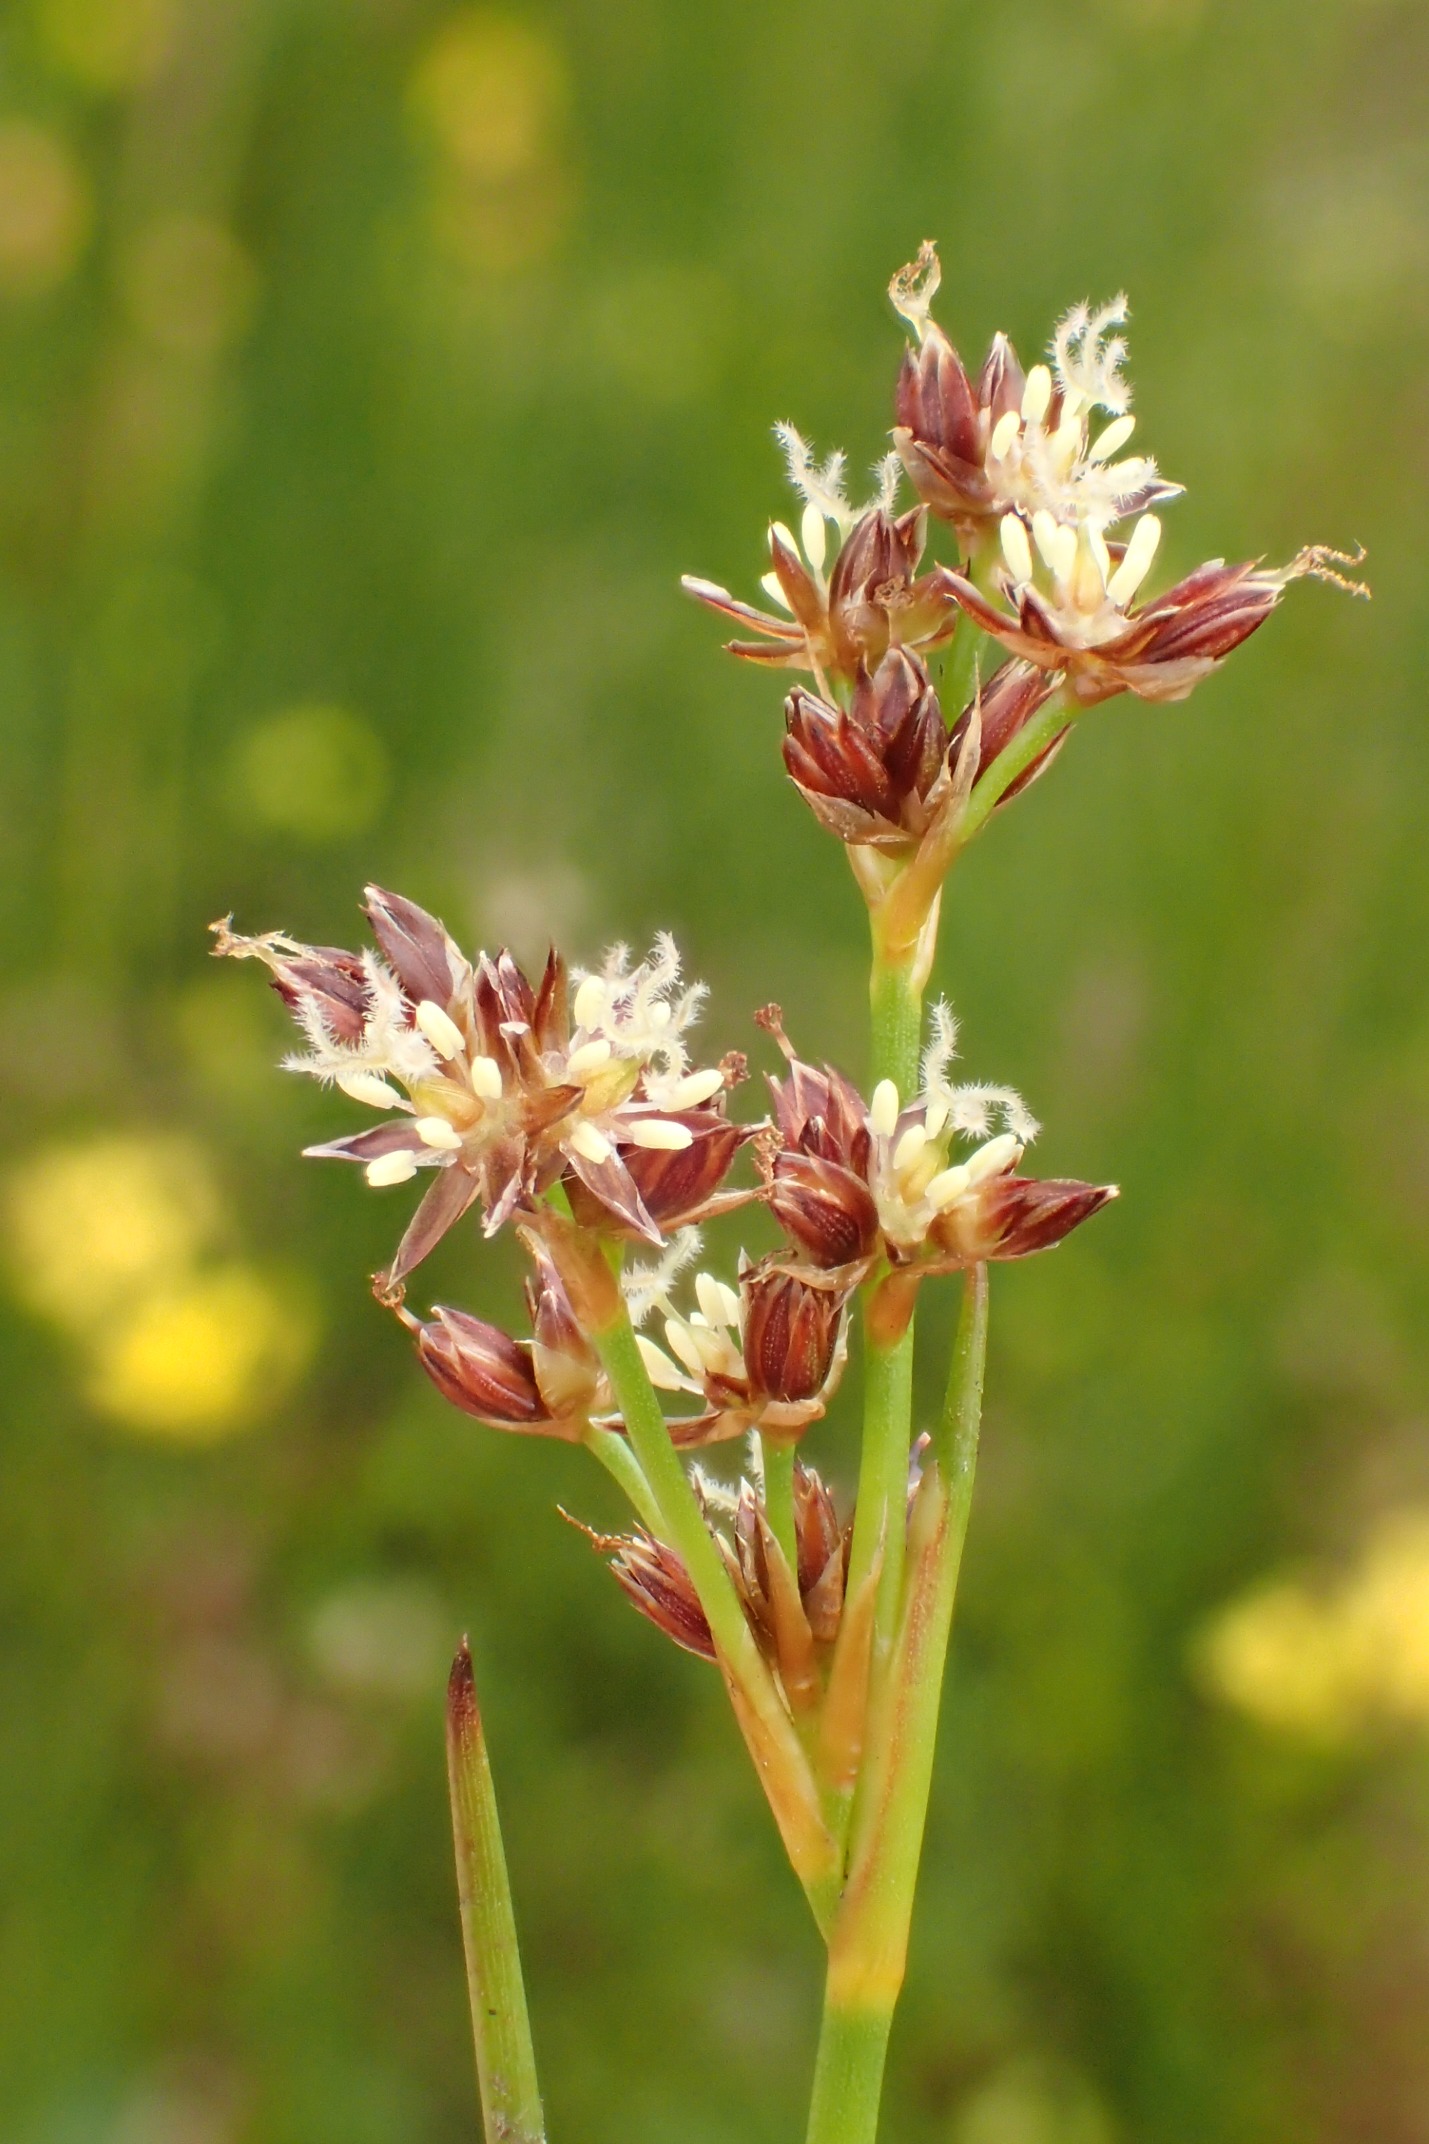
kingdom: Plantae
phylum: Tracheophyta
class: Liliopsida
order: Poales
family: Juncaceae
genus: Juncus
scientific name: Juncus articulatus
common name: Glanskapslet siv
